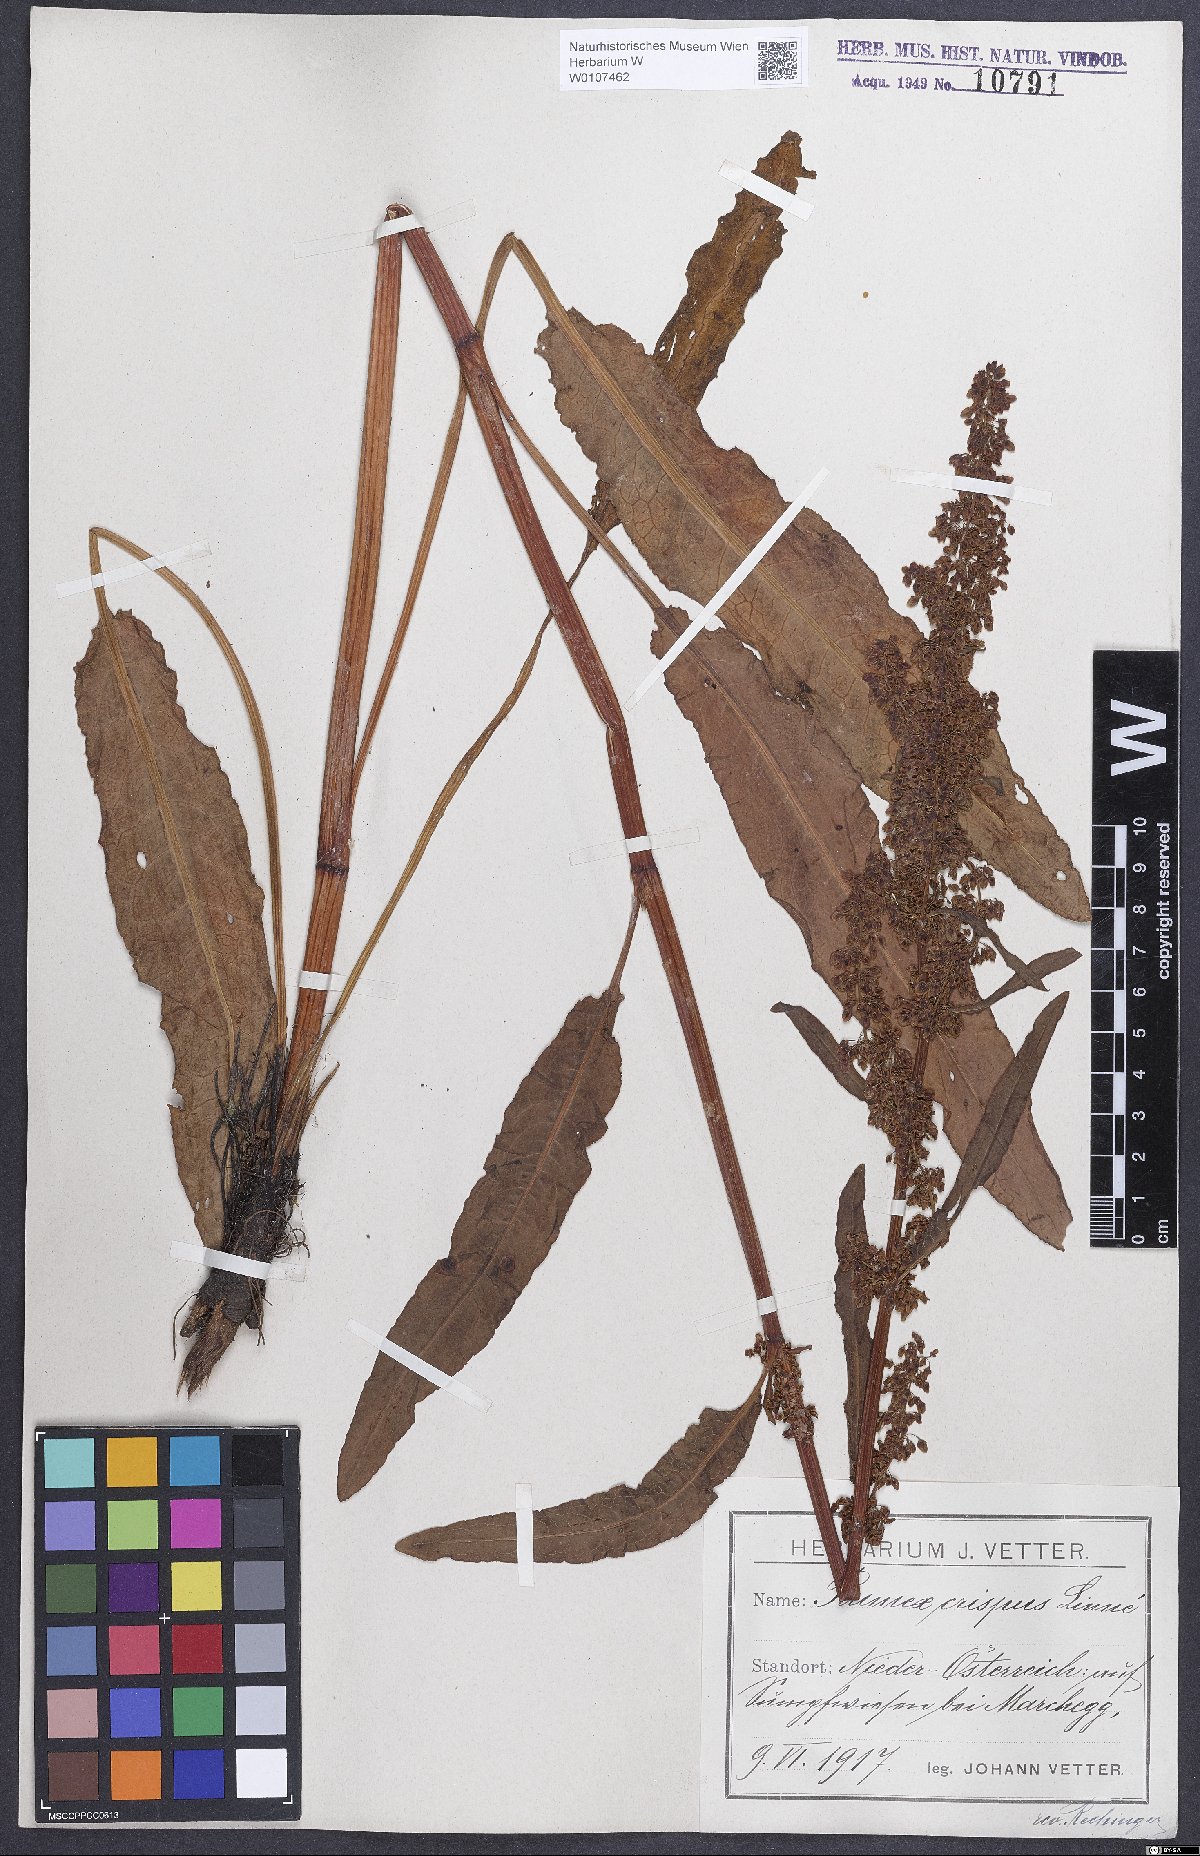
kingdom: Plantae
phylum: Tracheophyta
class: Magnoliopsida
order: Caryophyllales
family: Polygonaceae
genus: Rumex
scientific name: Rumex crispus
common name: Curled dock
